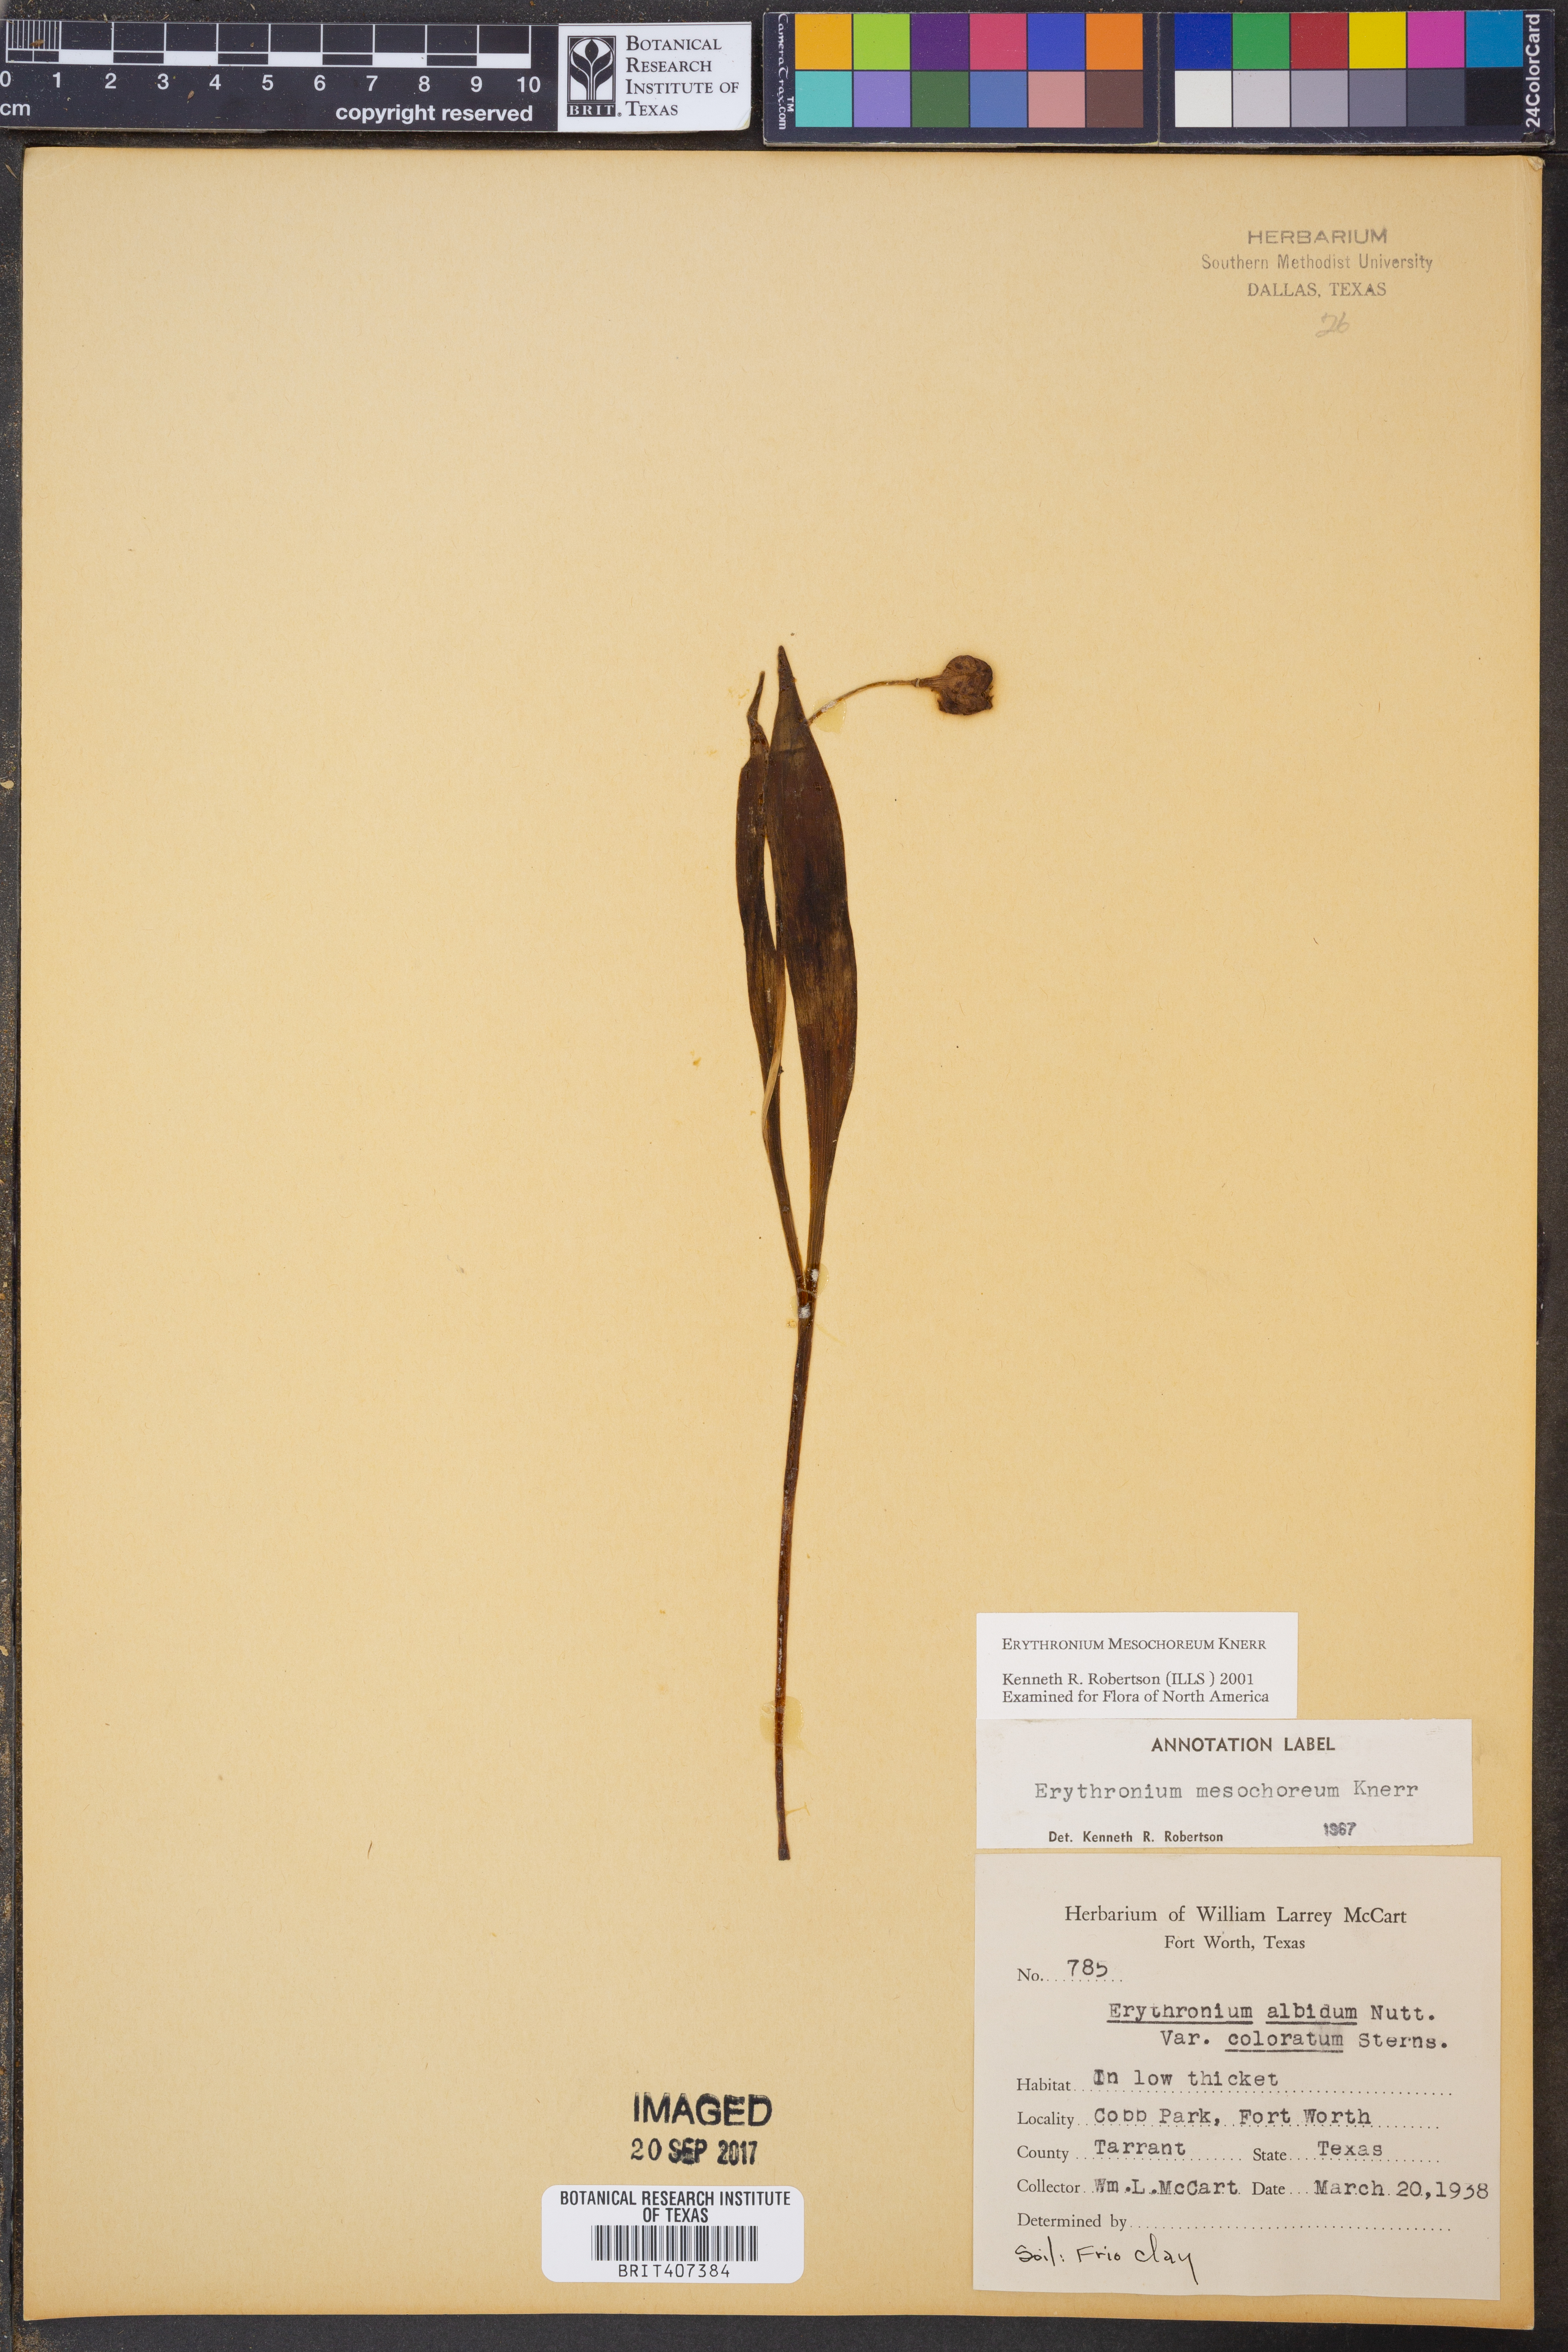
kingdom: Plantae
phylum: Tracheophyta
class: Liliopsida
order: Liliales
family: Liliaceae
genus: Erythronium
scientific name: Erythronium mesochoreum
